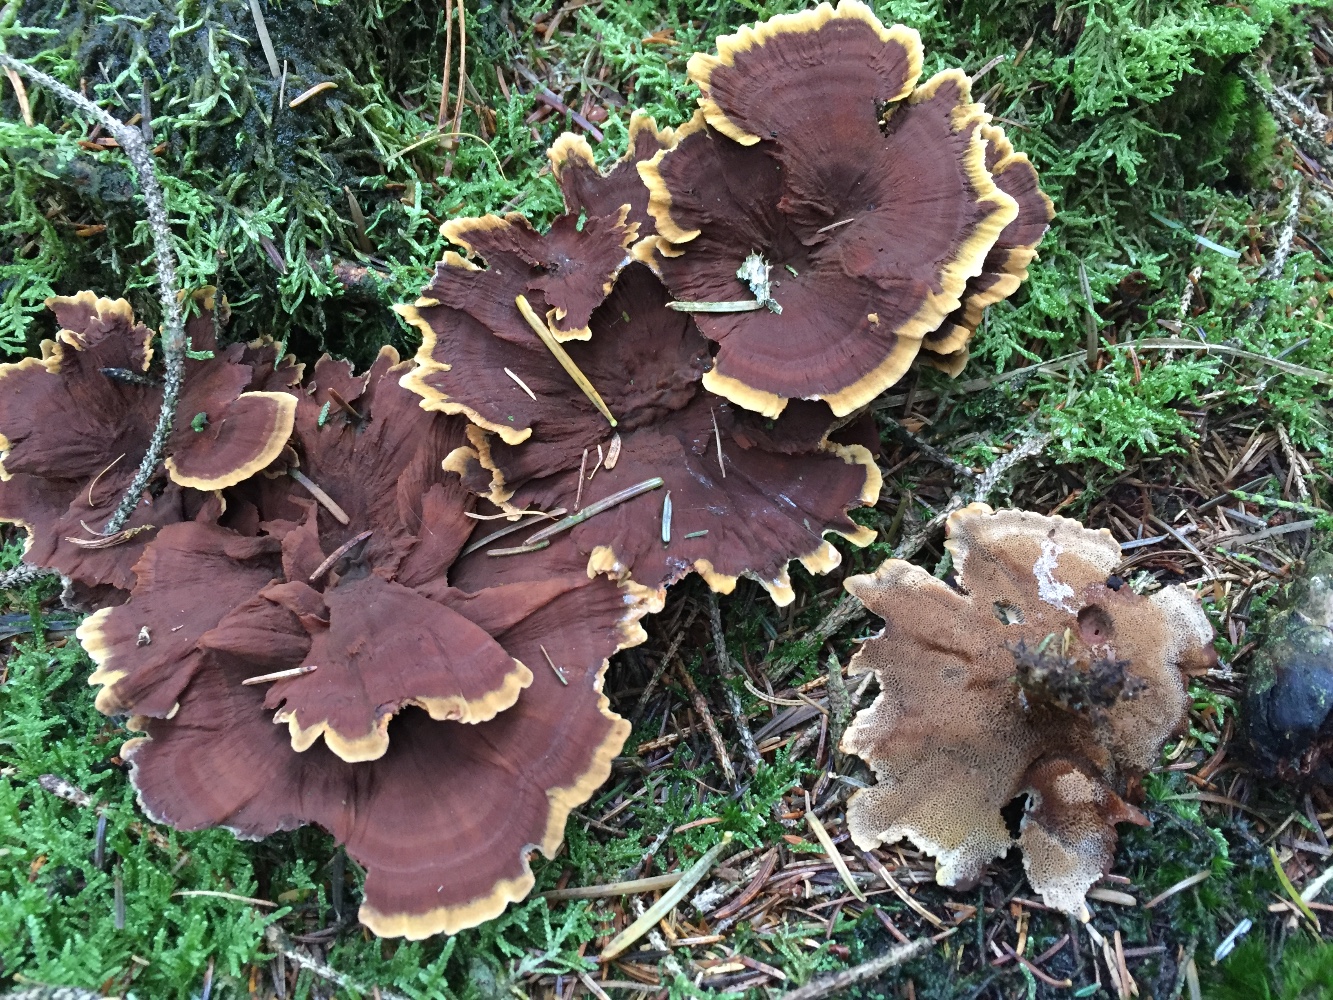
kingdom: Fungi
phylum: Basidiomycota
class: Agaricomycetes
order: Hymenochaetales
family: Hymenochaetaceae
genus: Coltricia
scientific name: Coltricia perennis
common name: almindelig sandporesvamp
